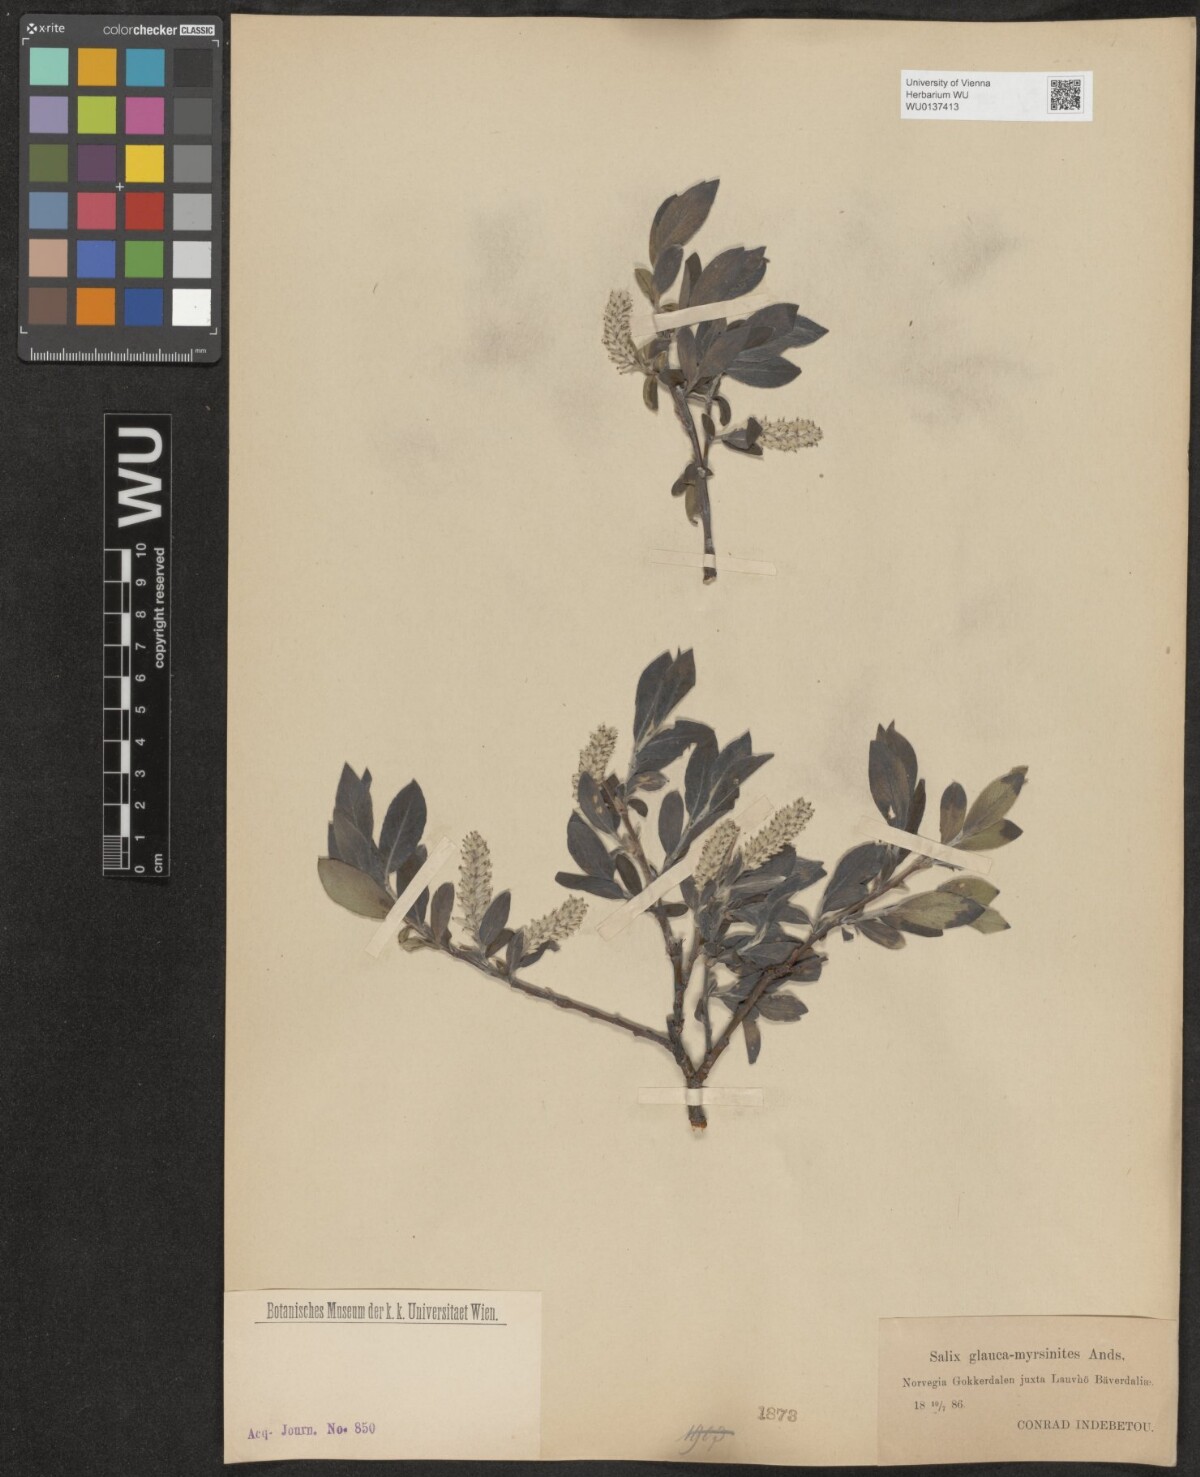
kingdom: Plantae
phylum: Tracheophyta
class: Magnoliopsida
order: Malpighiales
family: Salicaceae
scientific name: Salicaceae
